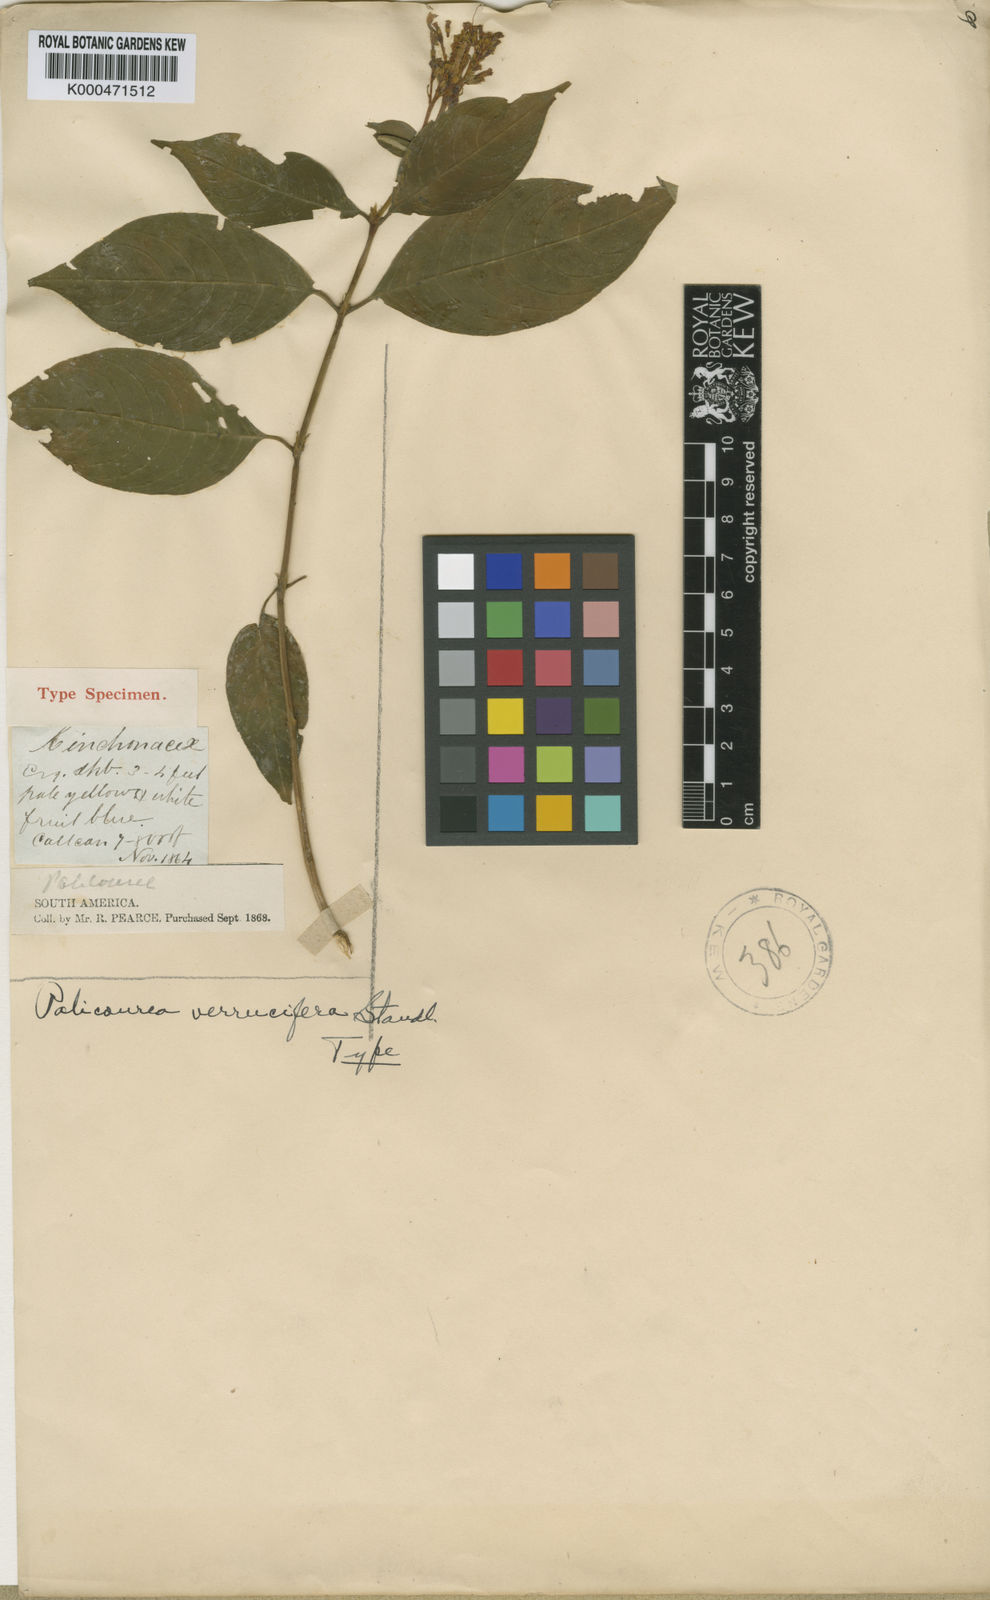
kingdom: Plantae
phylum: Tracheophyta
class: Magnoliopsida
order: Gentianales
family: Rubiaceae
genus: Palicourea
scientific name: Palicourea buchtienii
